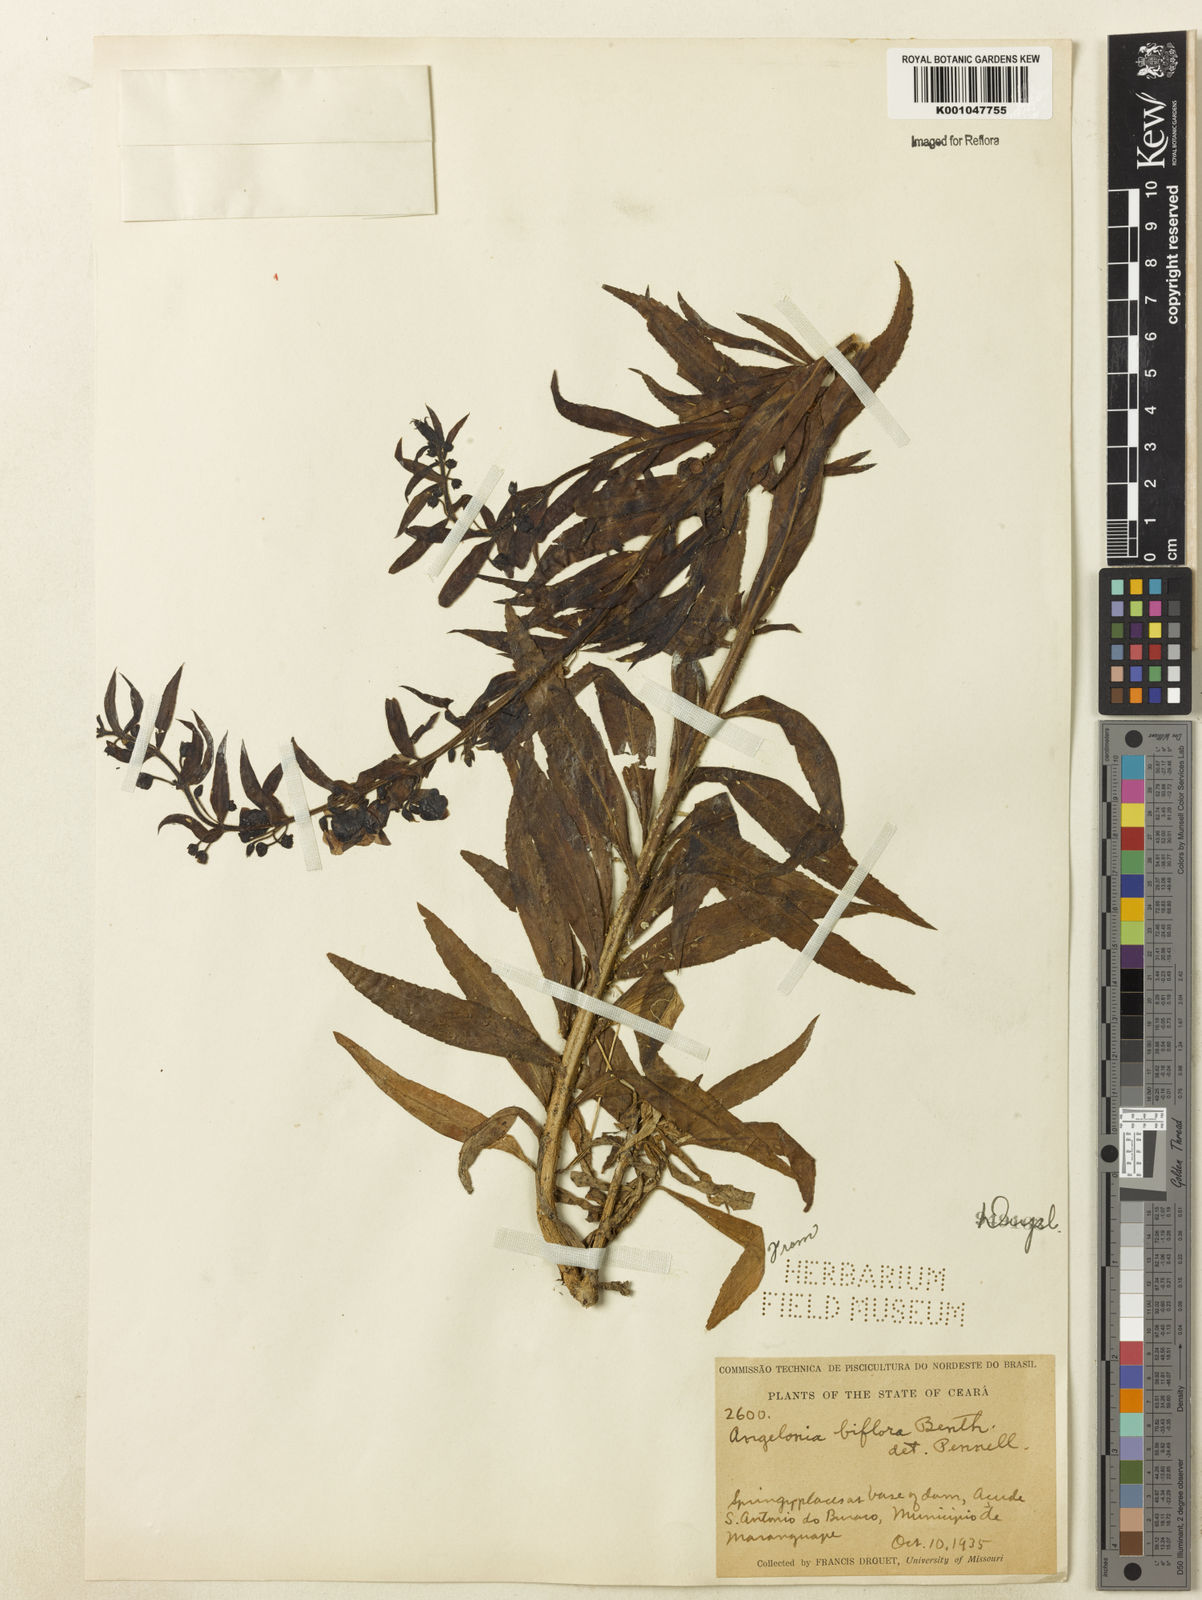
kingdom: Plantae
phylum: Tracheophyta
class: Magnoliopsida
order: Lamiales
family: Plantaginaceae
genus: Angelonia
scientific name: Angelonia biflora
